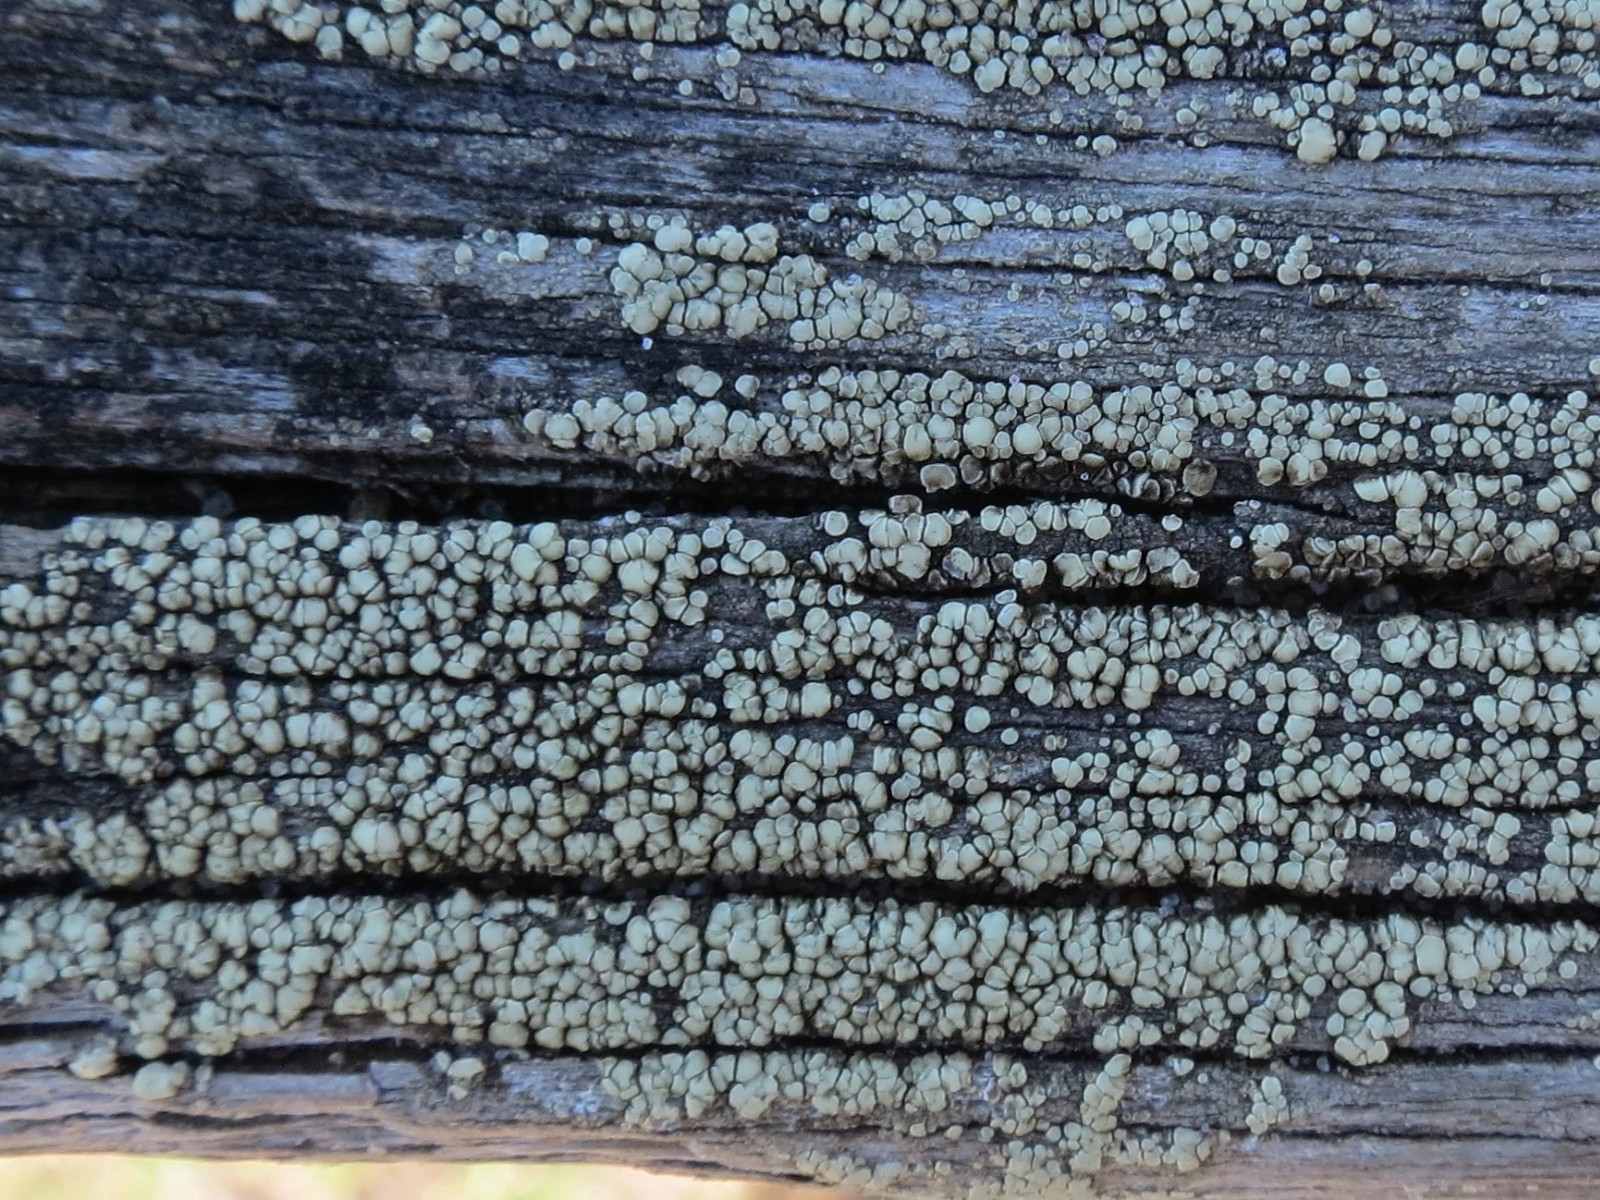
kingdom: Fungi
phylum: Ascomycota
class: Lecanoromycetes
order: Lecanorales
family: Lecanoraceae
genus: Lecanora
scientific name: Lecanora polytropa
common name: bleggrøn kantskivelav
